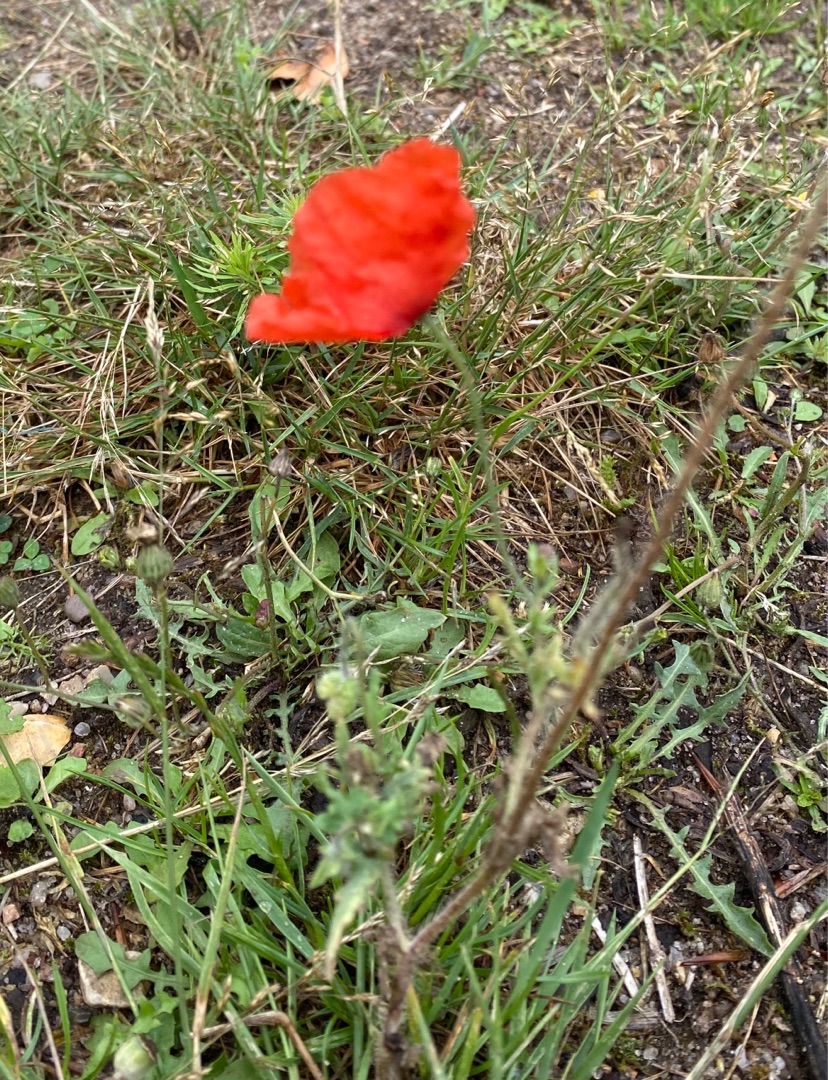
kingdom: Plantae
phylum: Tracheophyta
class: Magnoliopsida
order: Ranunculales
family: Papaveraceae
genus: Papaver
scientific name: Papaver
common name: Valmueslægten
